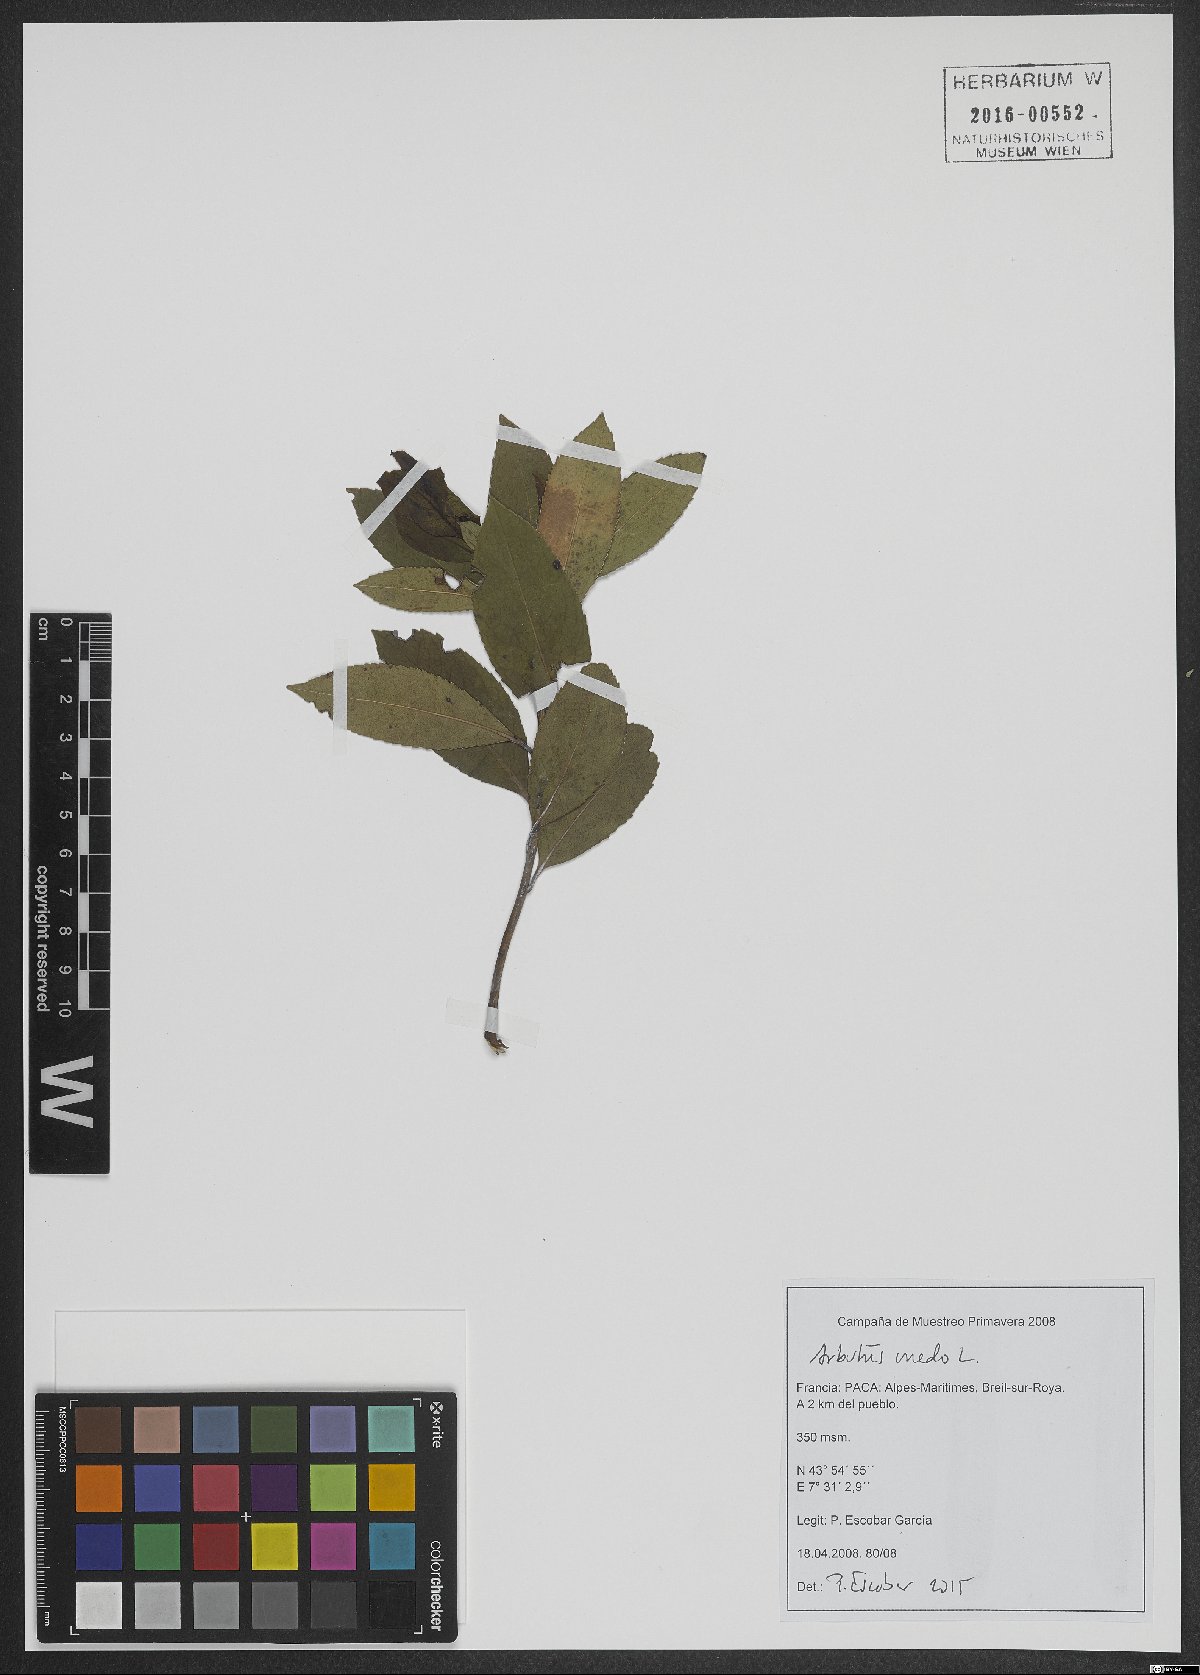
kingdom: Plantae
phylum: Tracheophyta
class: Magnoliopsida
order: Ericales
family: Ericaceae
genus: Arbutus
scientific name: Arbutus unedo
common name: Strawberry-tree
